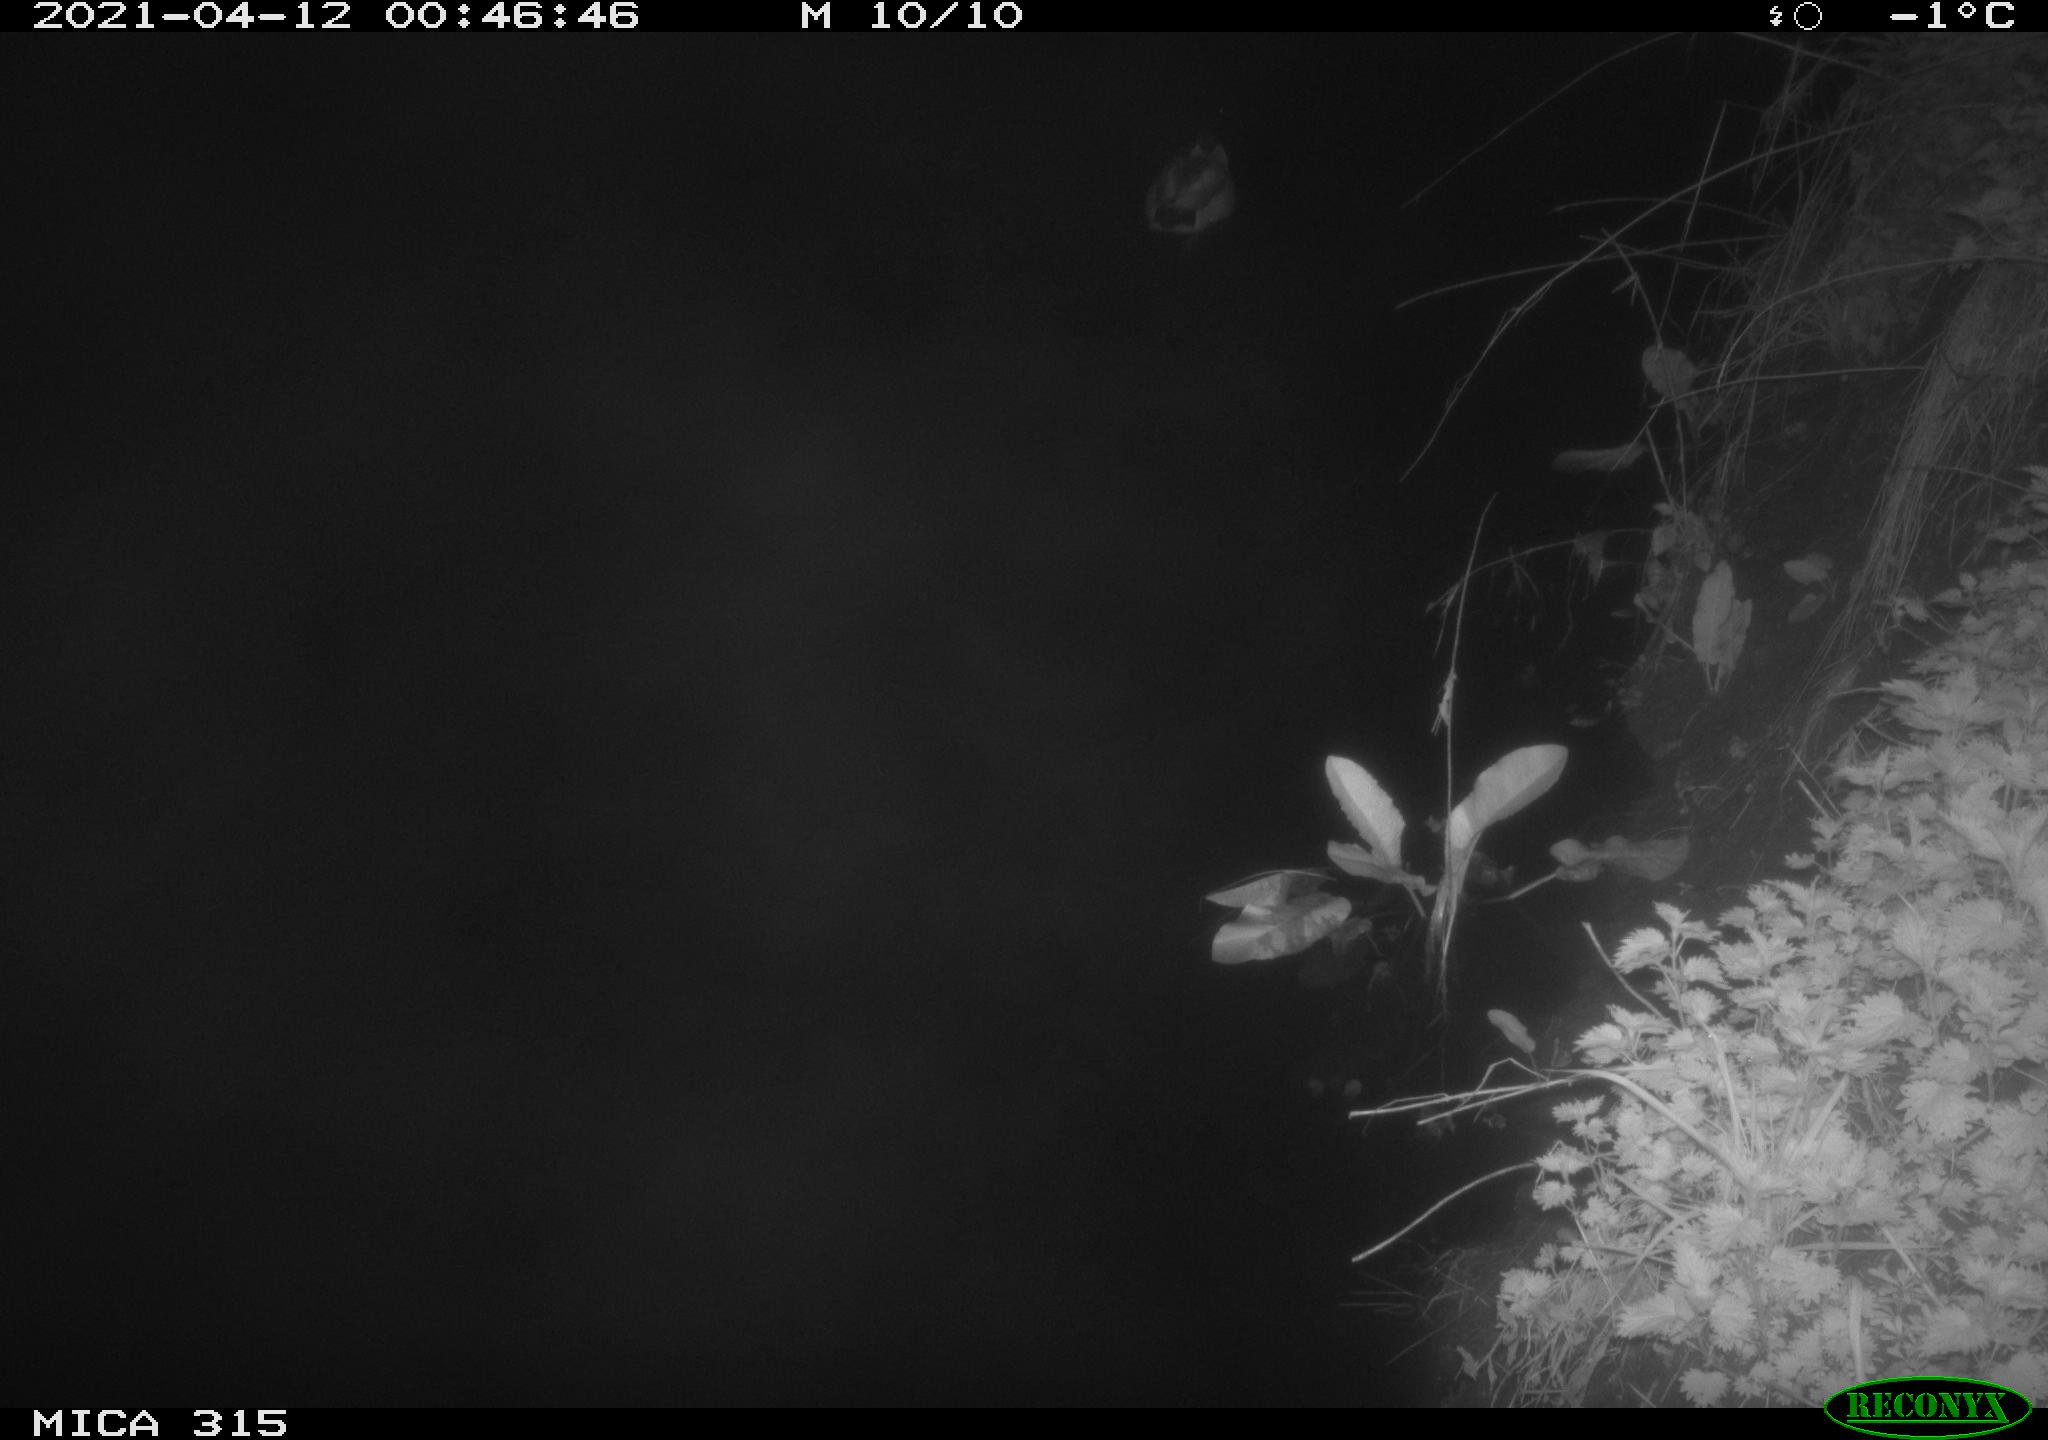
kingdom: Animalia
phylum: Chordata
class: Aves
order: Anseriformes
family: Anatidae
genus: Anas
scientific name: Anas platyrhynchos
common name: Mallard
